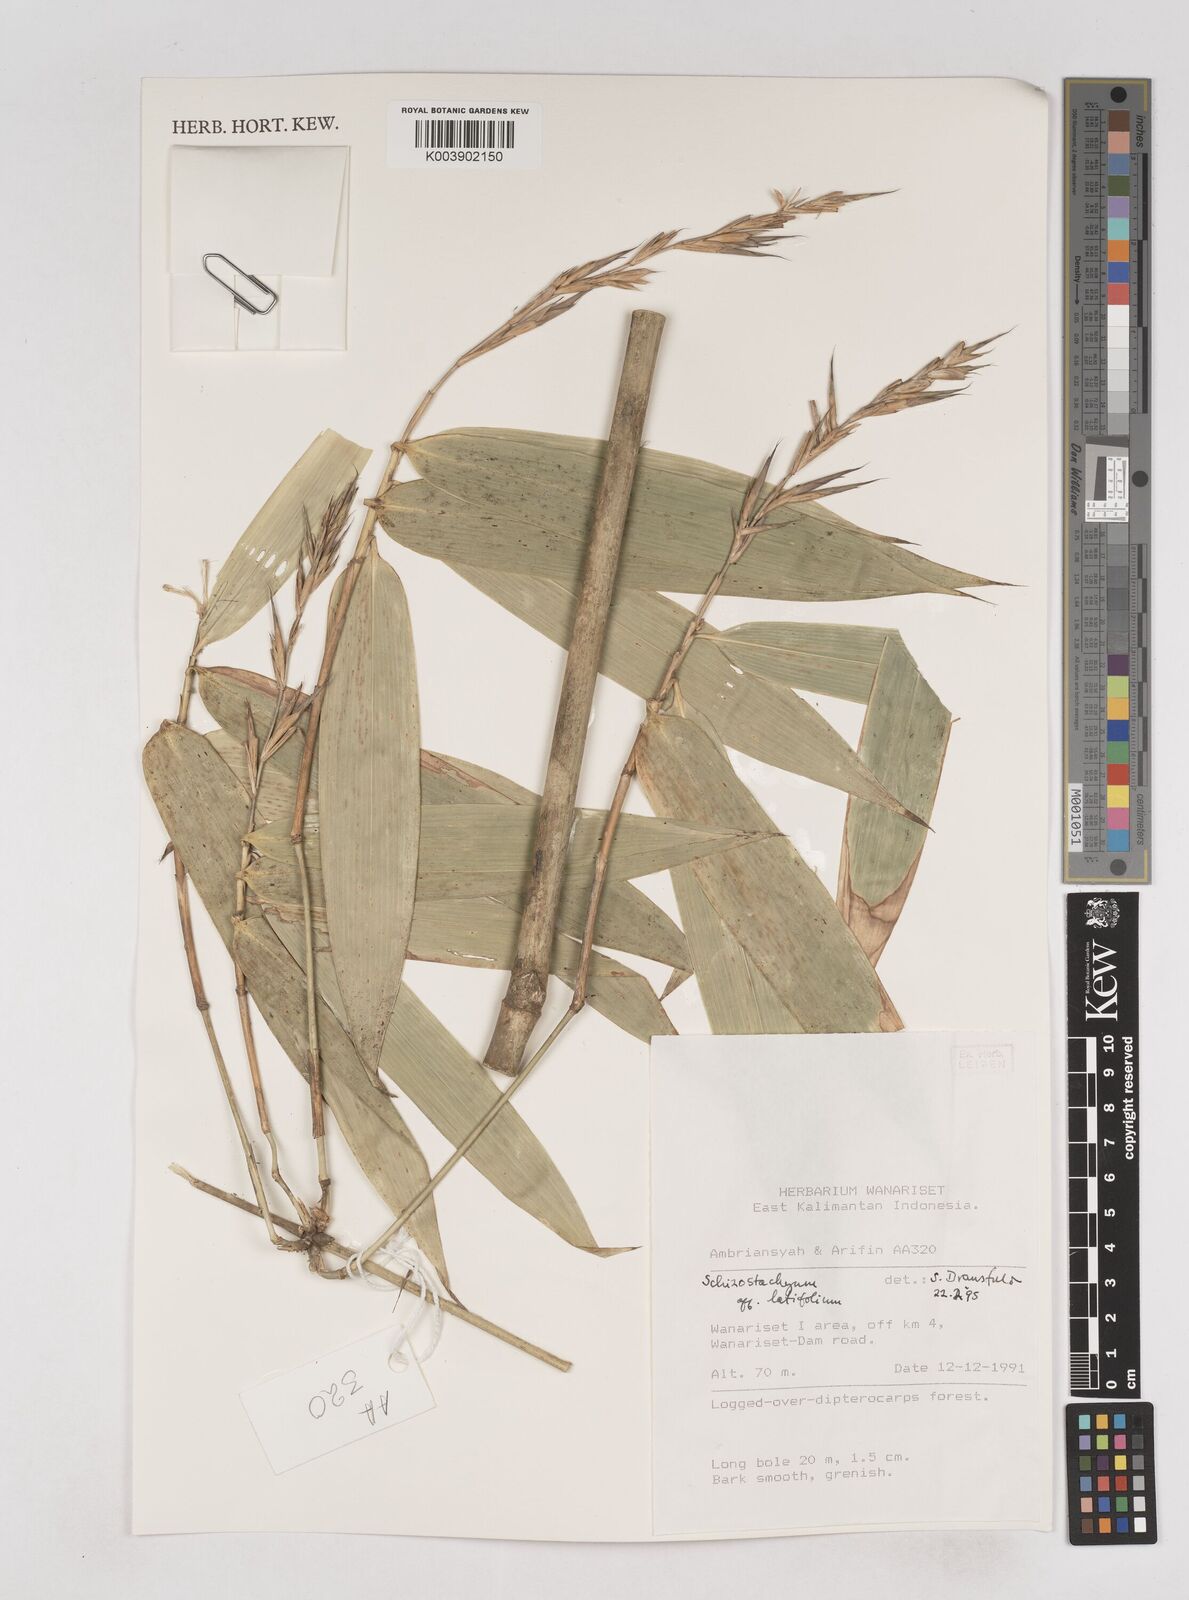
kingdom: Plantae
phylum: Tracheophyta
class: Liliopsida
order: Poales
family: Poaceae
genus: Schizostachyum
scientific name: Schizostachyum
